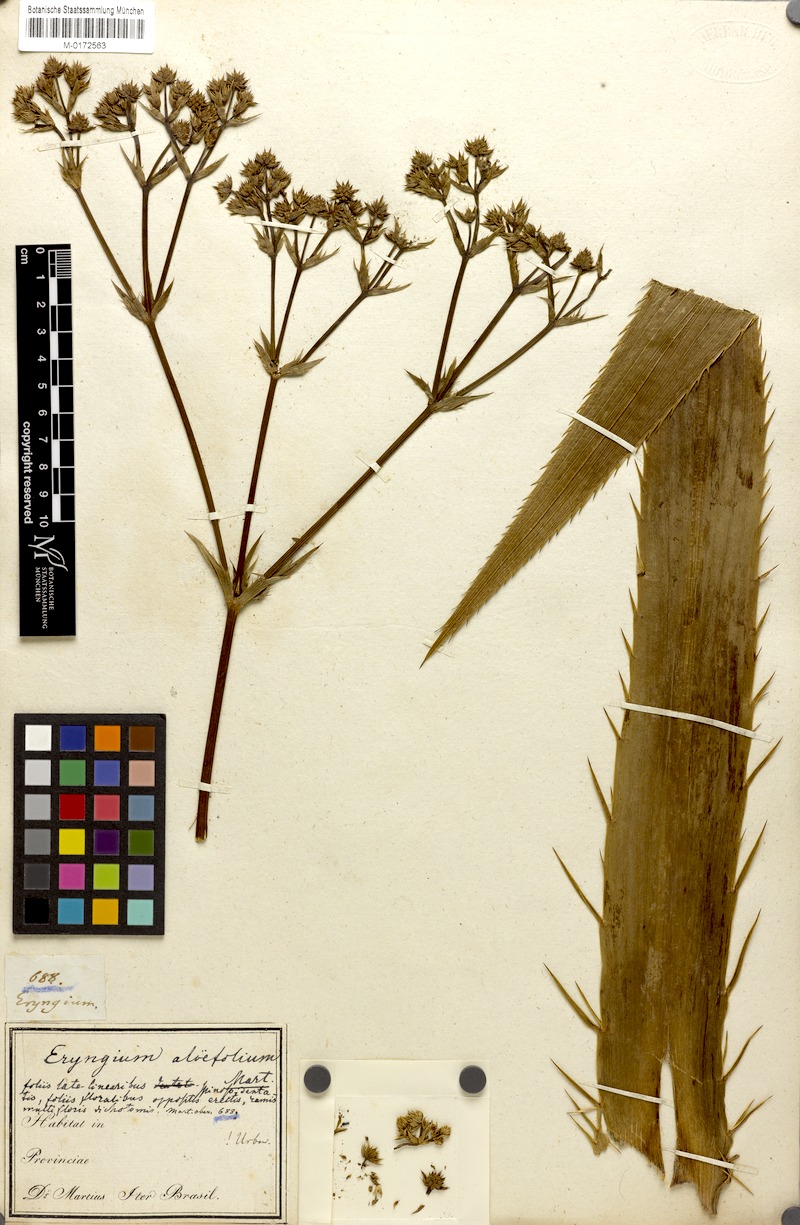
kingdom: Plantae
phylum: Tracheophyta
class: Magnoliopsida
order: Apiales
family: Apiaceae
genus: Eryngium
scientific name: Eryngium aloifolium
